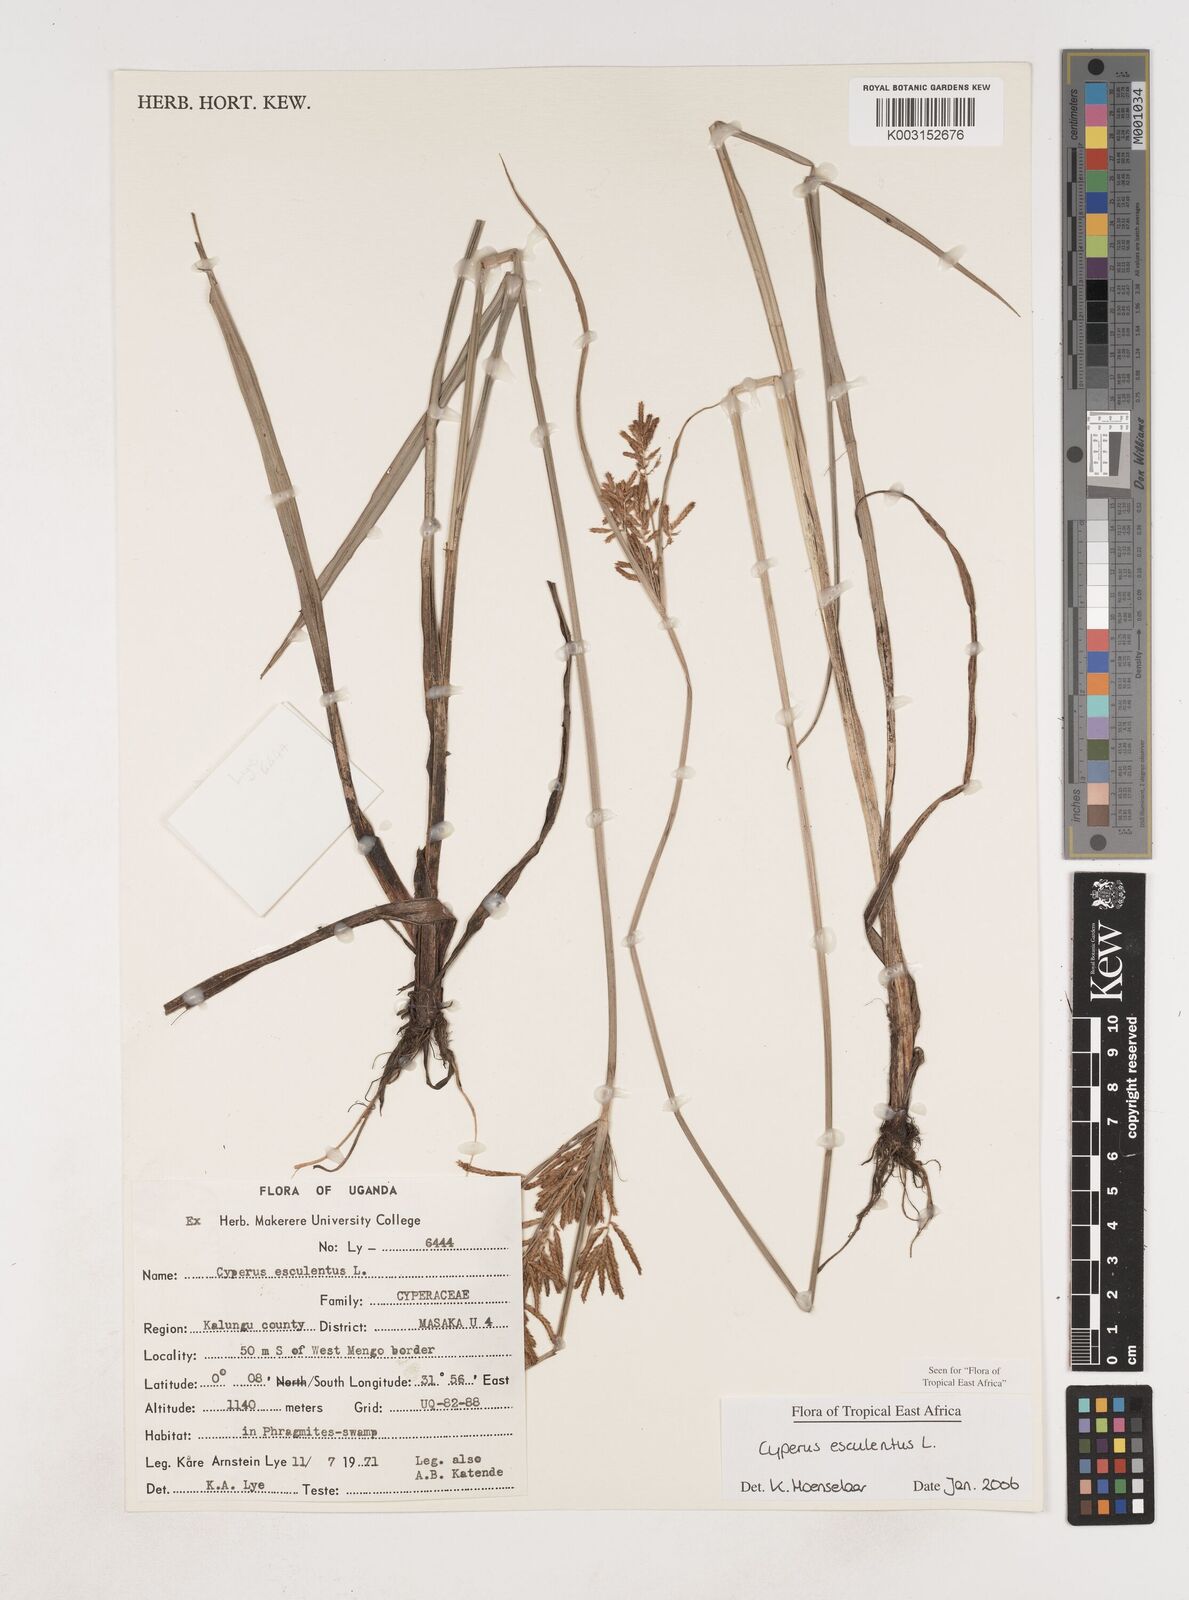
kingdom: Plantae
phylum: Tracheophyta
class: Liliopsida
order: Poales
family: Cyperaceae
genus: Cyperus
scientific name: Cyperus esculentus
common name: Yellow nutsedge
